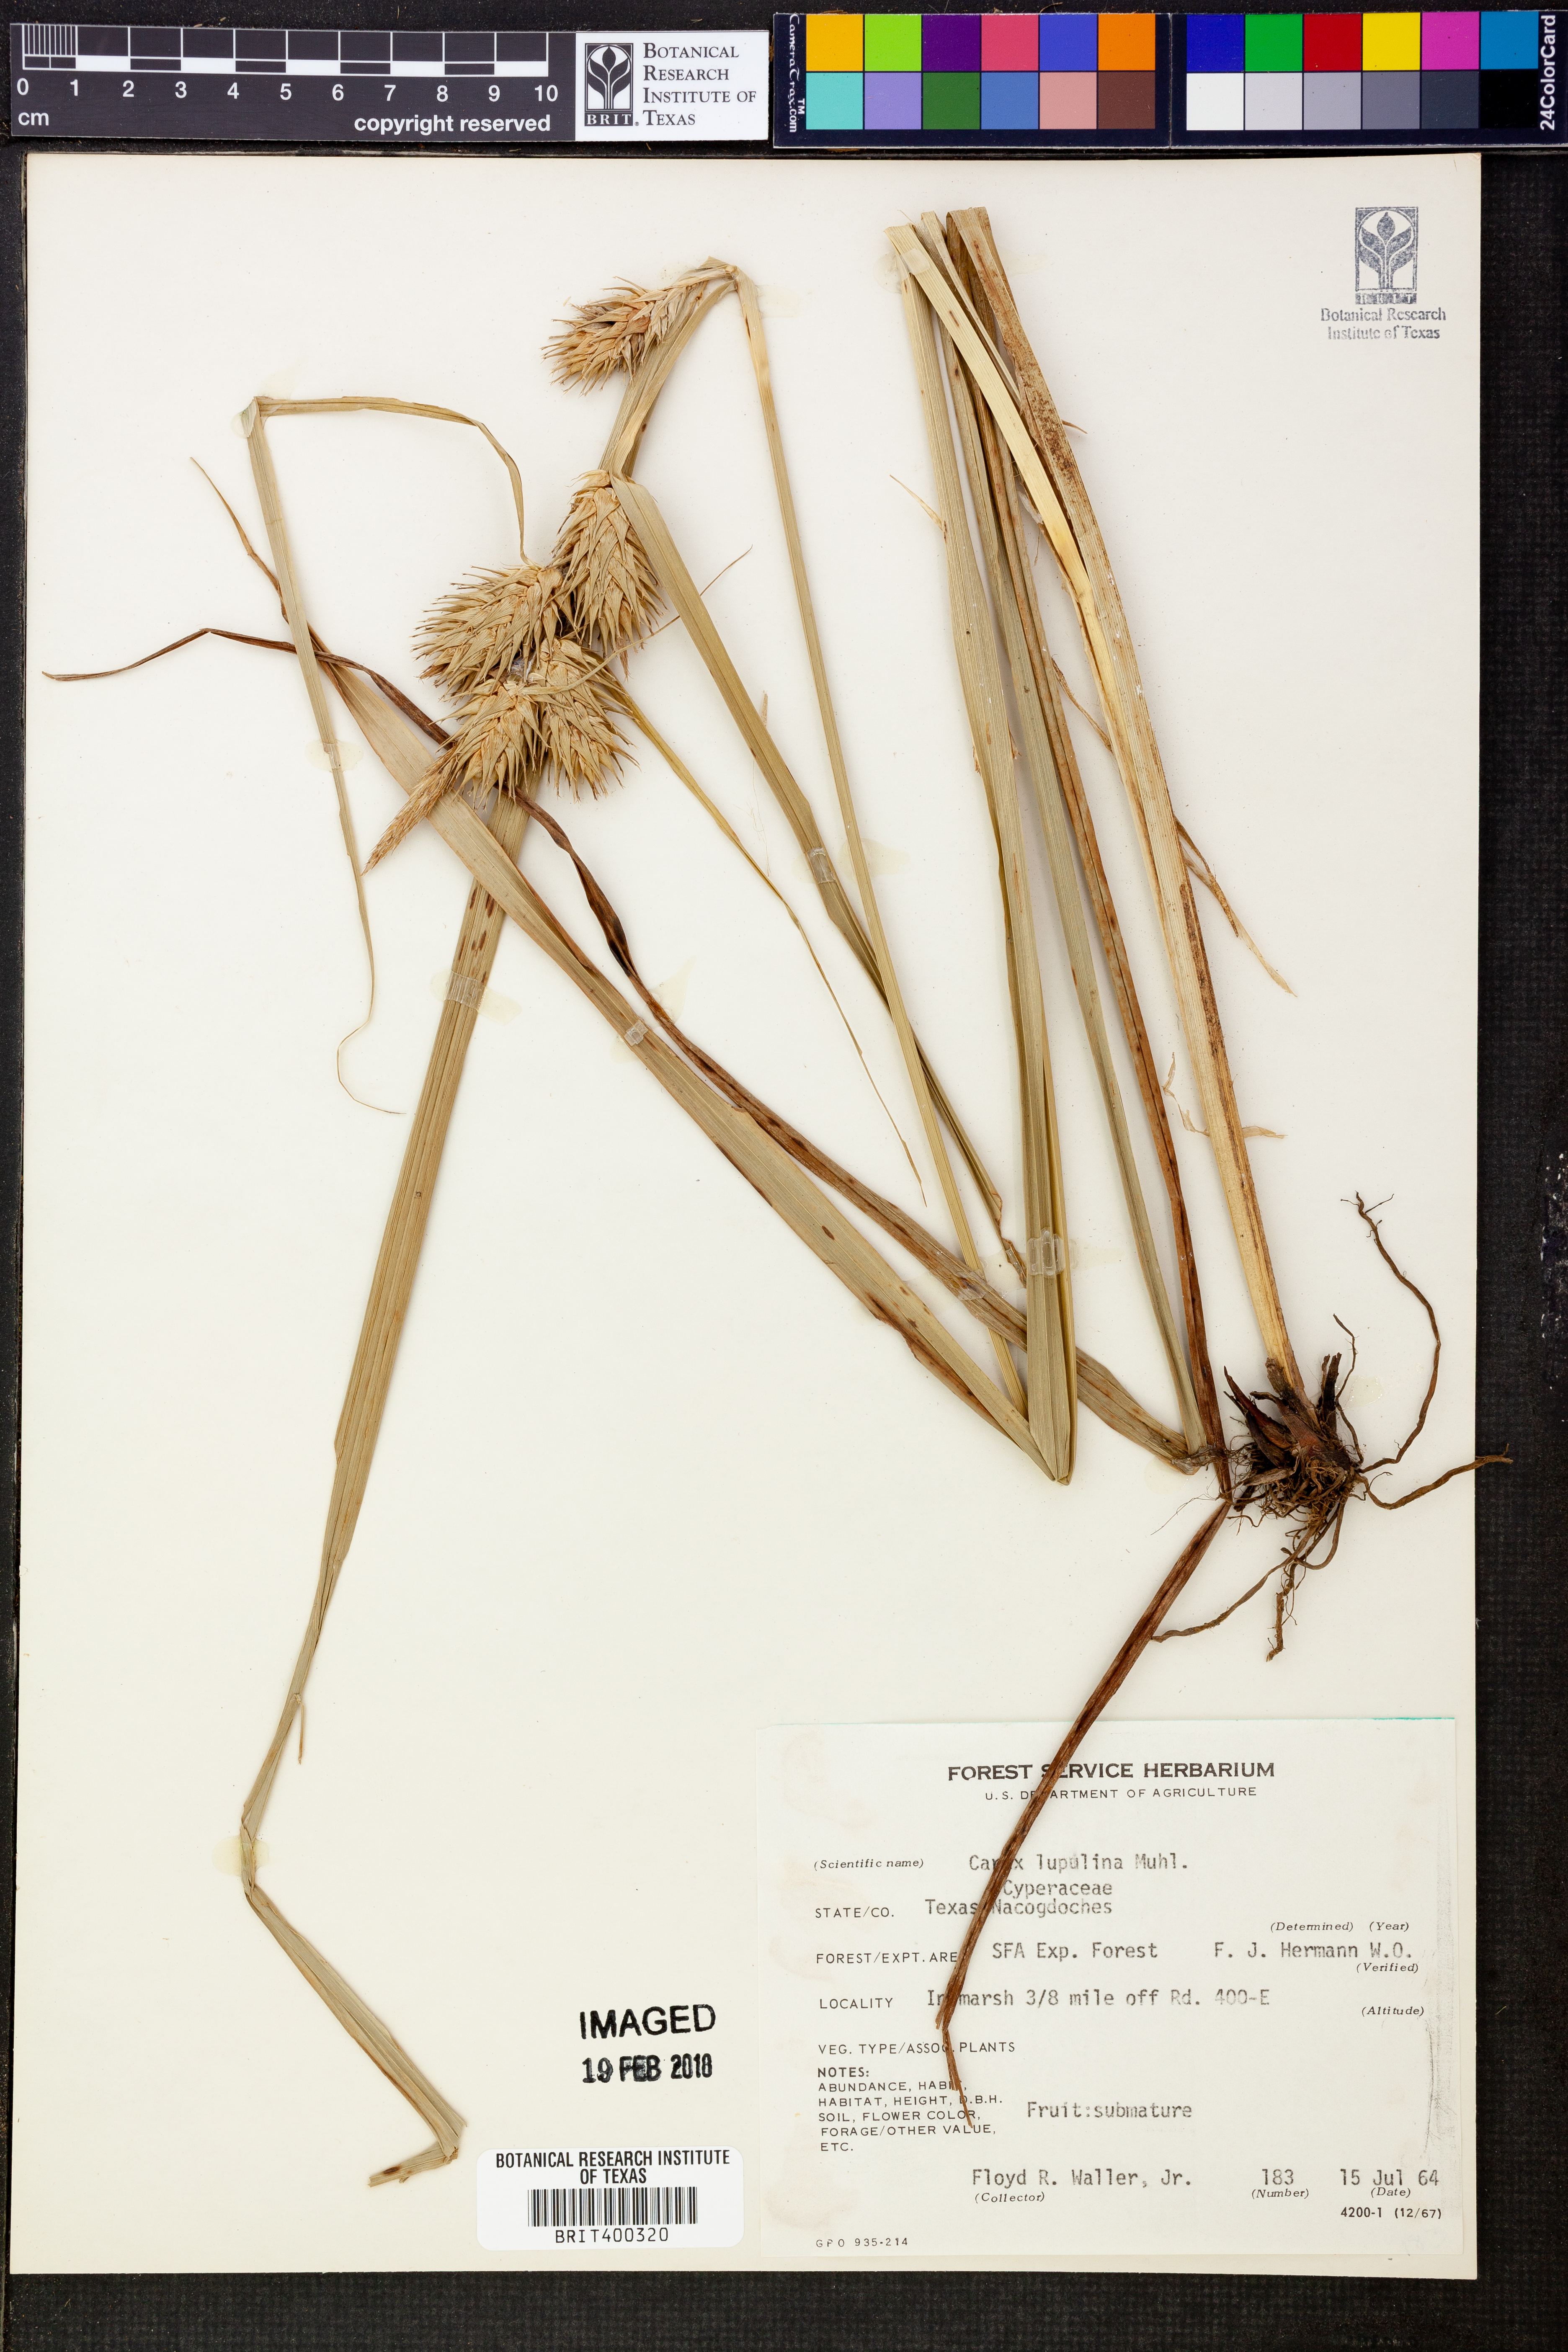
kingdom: Plantae
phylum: Tracheophyta
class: Liliopsida
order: Poales
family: Cyperaceae
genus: Carex
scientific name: Carex lupulina
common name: Hop sedge
